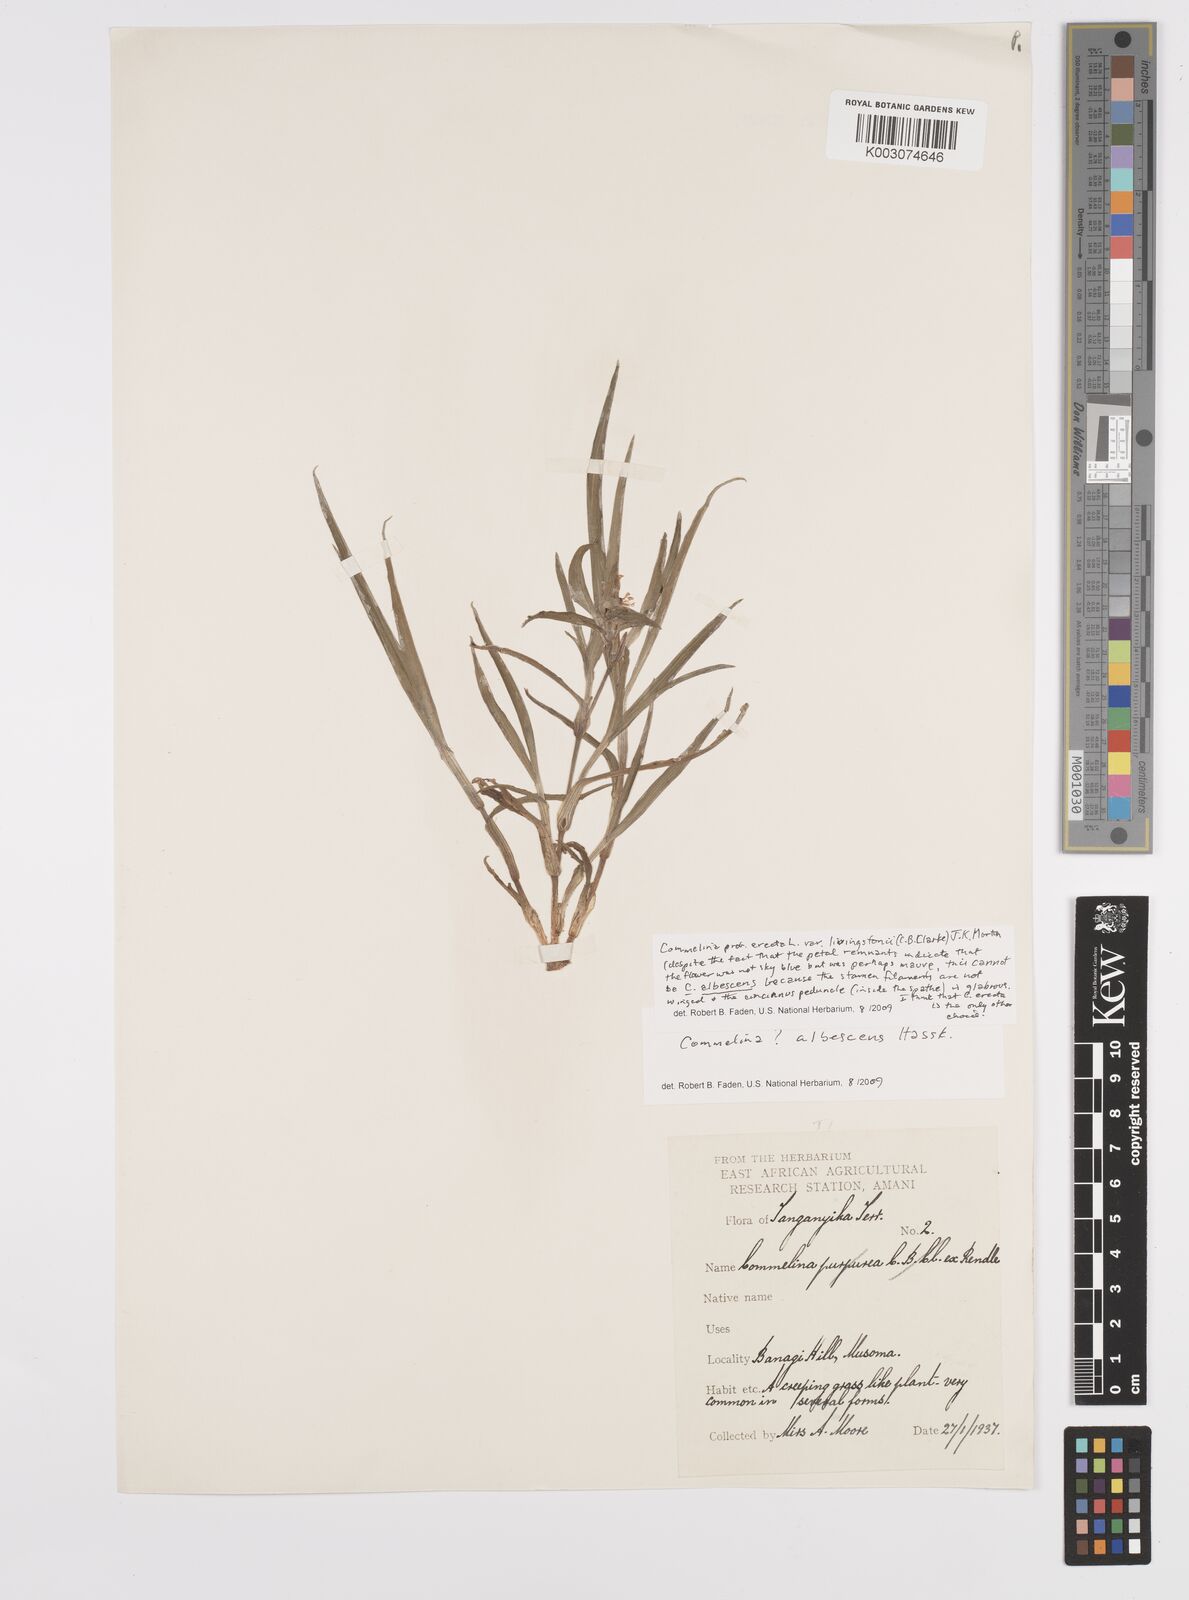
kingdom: Plantae
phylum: Tracheophyta
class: Liliopsida
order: Commelinales
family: Commelinaceae
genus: Commelina
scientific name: Commelina erecta
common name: Blousel blommetjie
